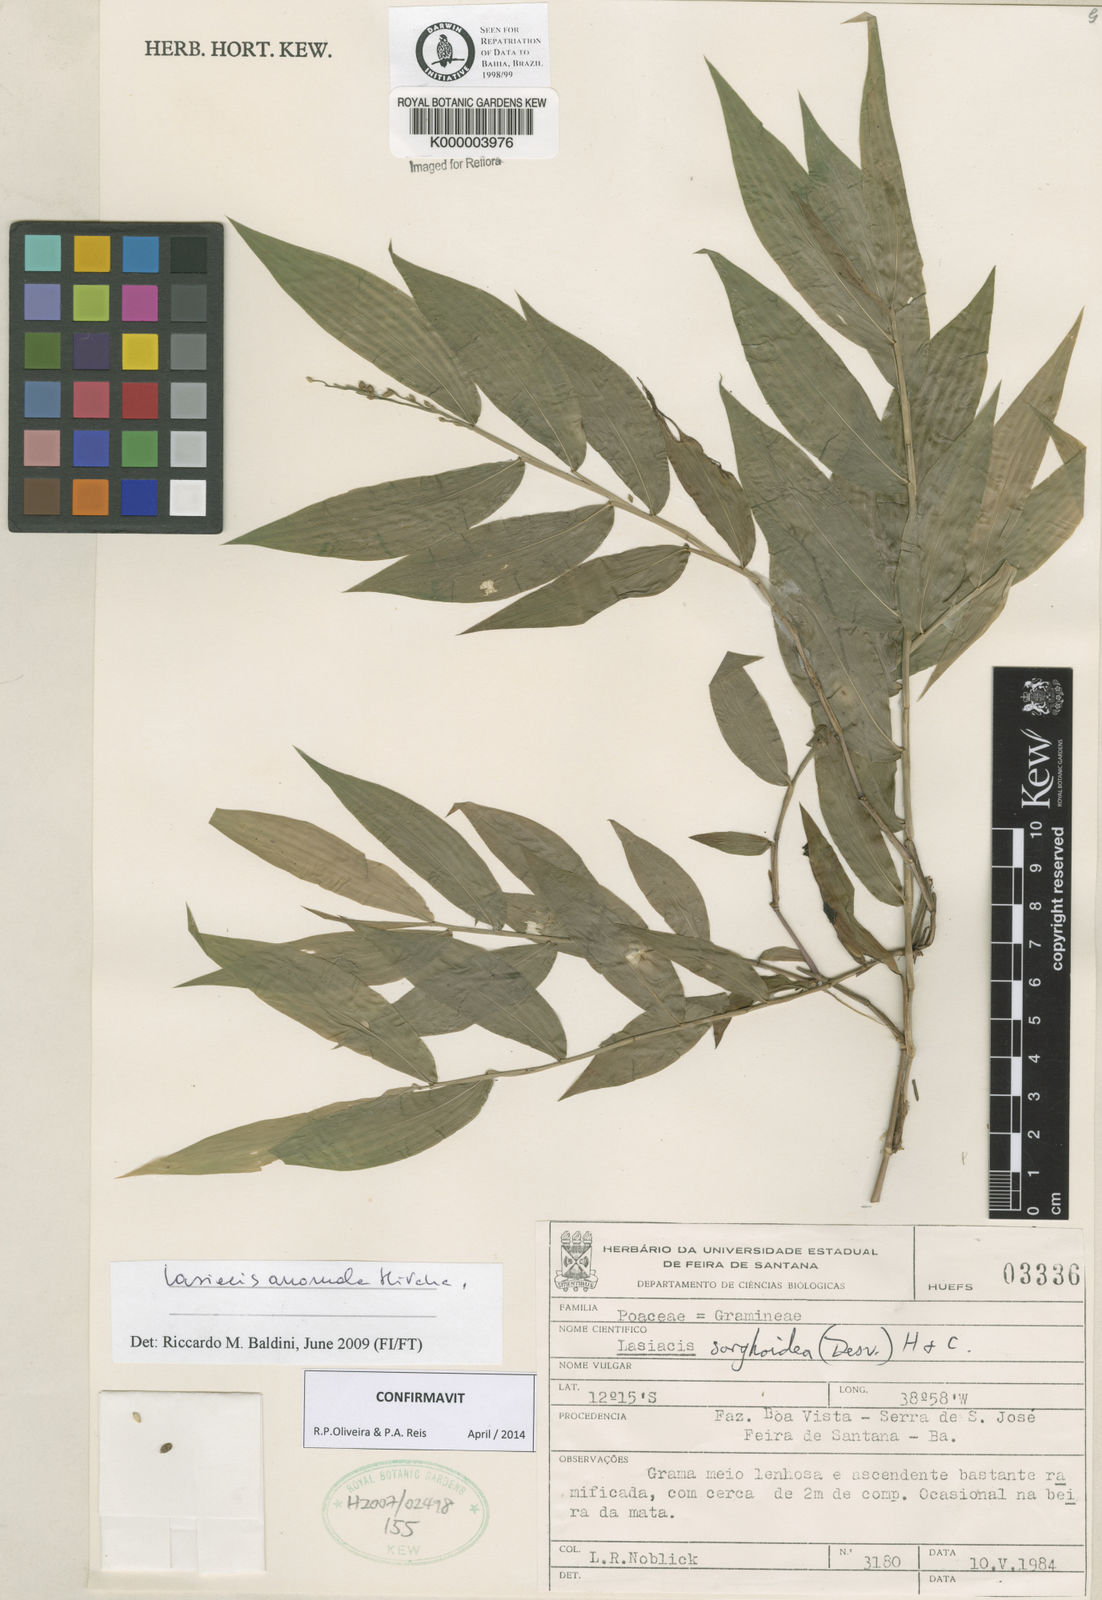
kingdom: Plantae
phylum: Tracheophyta
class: Liliopsida
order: Poales
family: Poaceae
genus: Lasiacis
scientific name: Lasiacis maculata
